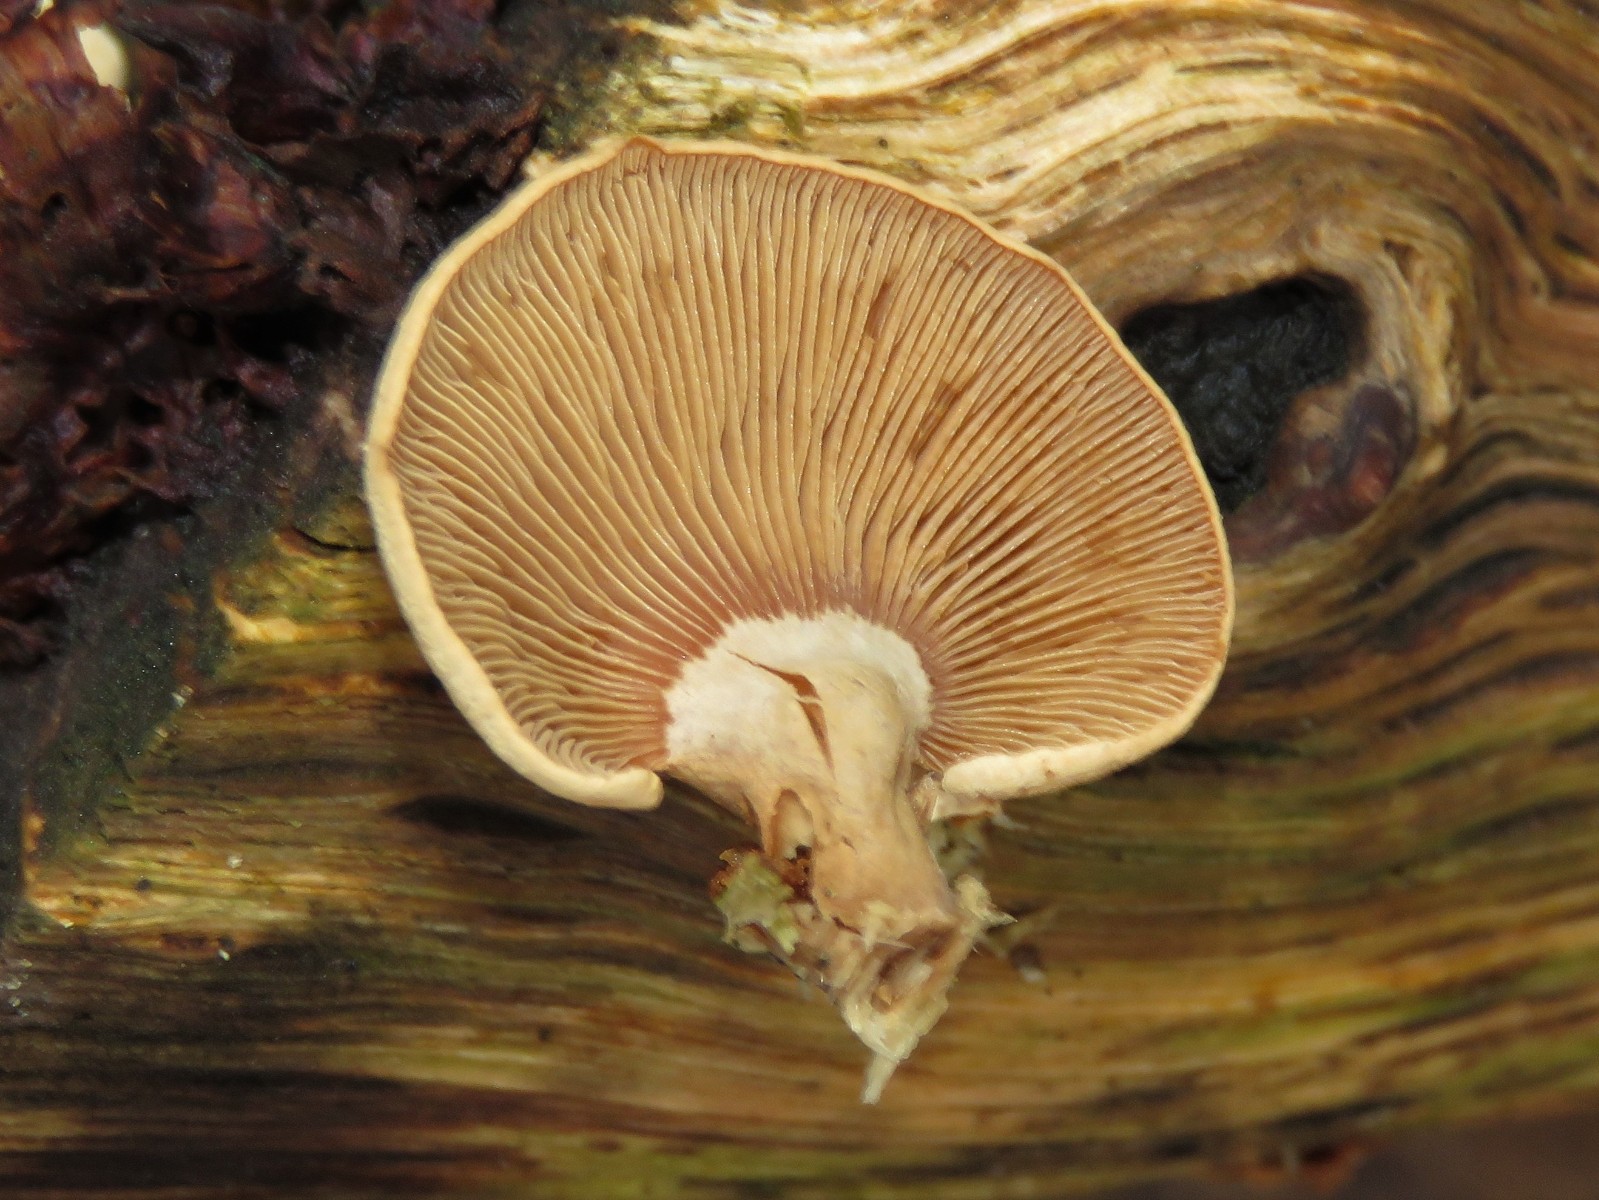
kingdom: Fungi
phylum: Basidiomycota
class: Agaricomycetes
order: Agaricales
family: Mycenaceae
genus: Panellus
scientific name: Panellus stipticus
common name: kliddet epaulethat
